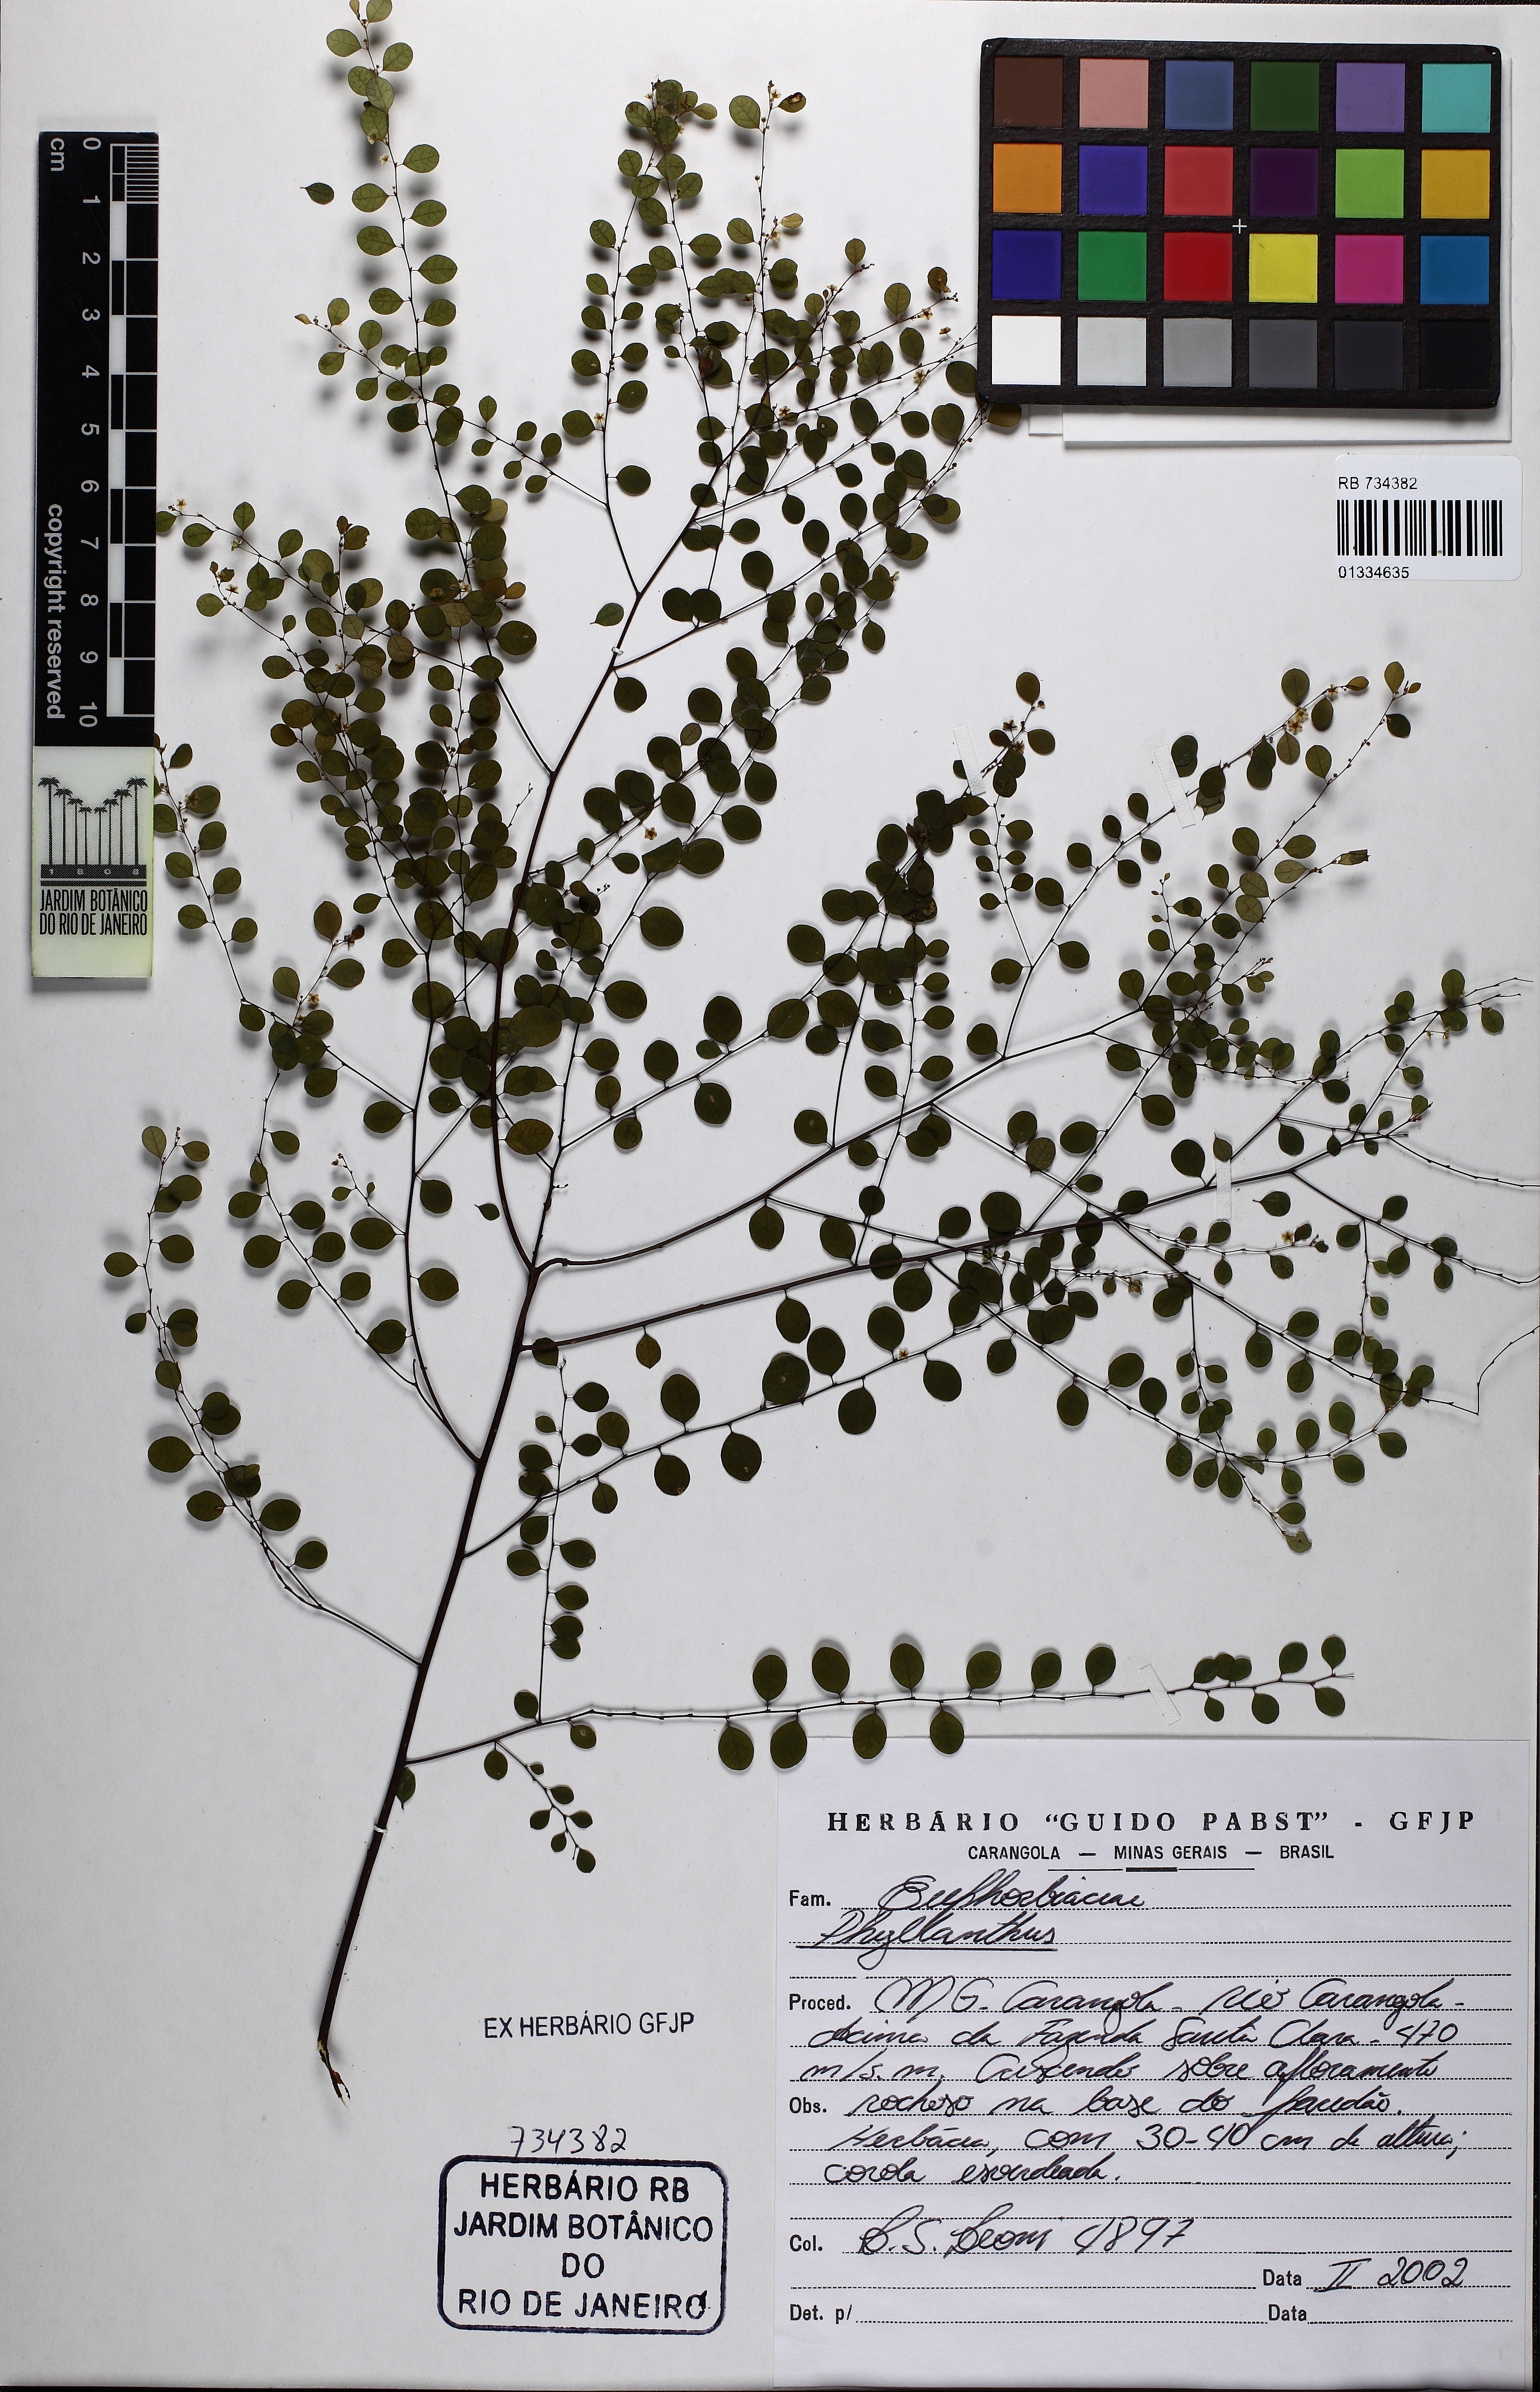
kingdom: Plantae
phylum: Tracheophyta
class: Magnoliopsida
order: Malpighiales
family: Phyllanthaceae
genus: Phyllanthus
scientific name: Phyllanthus
